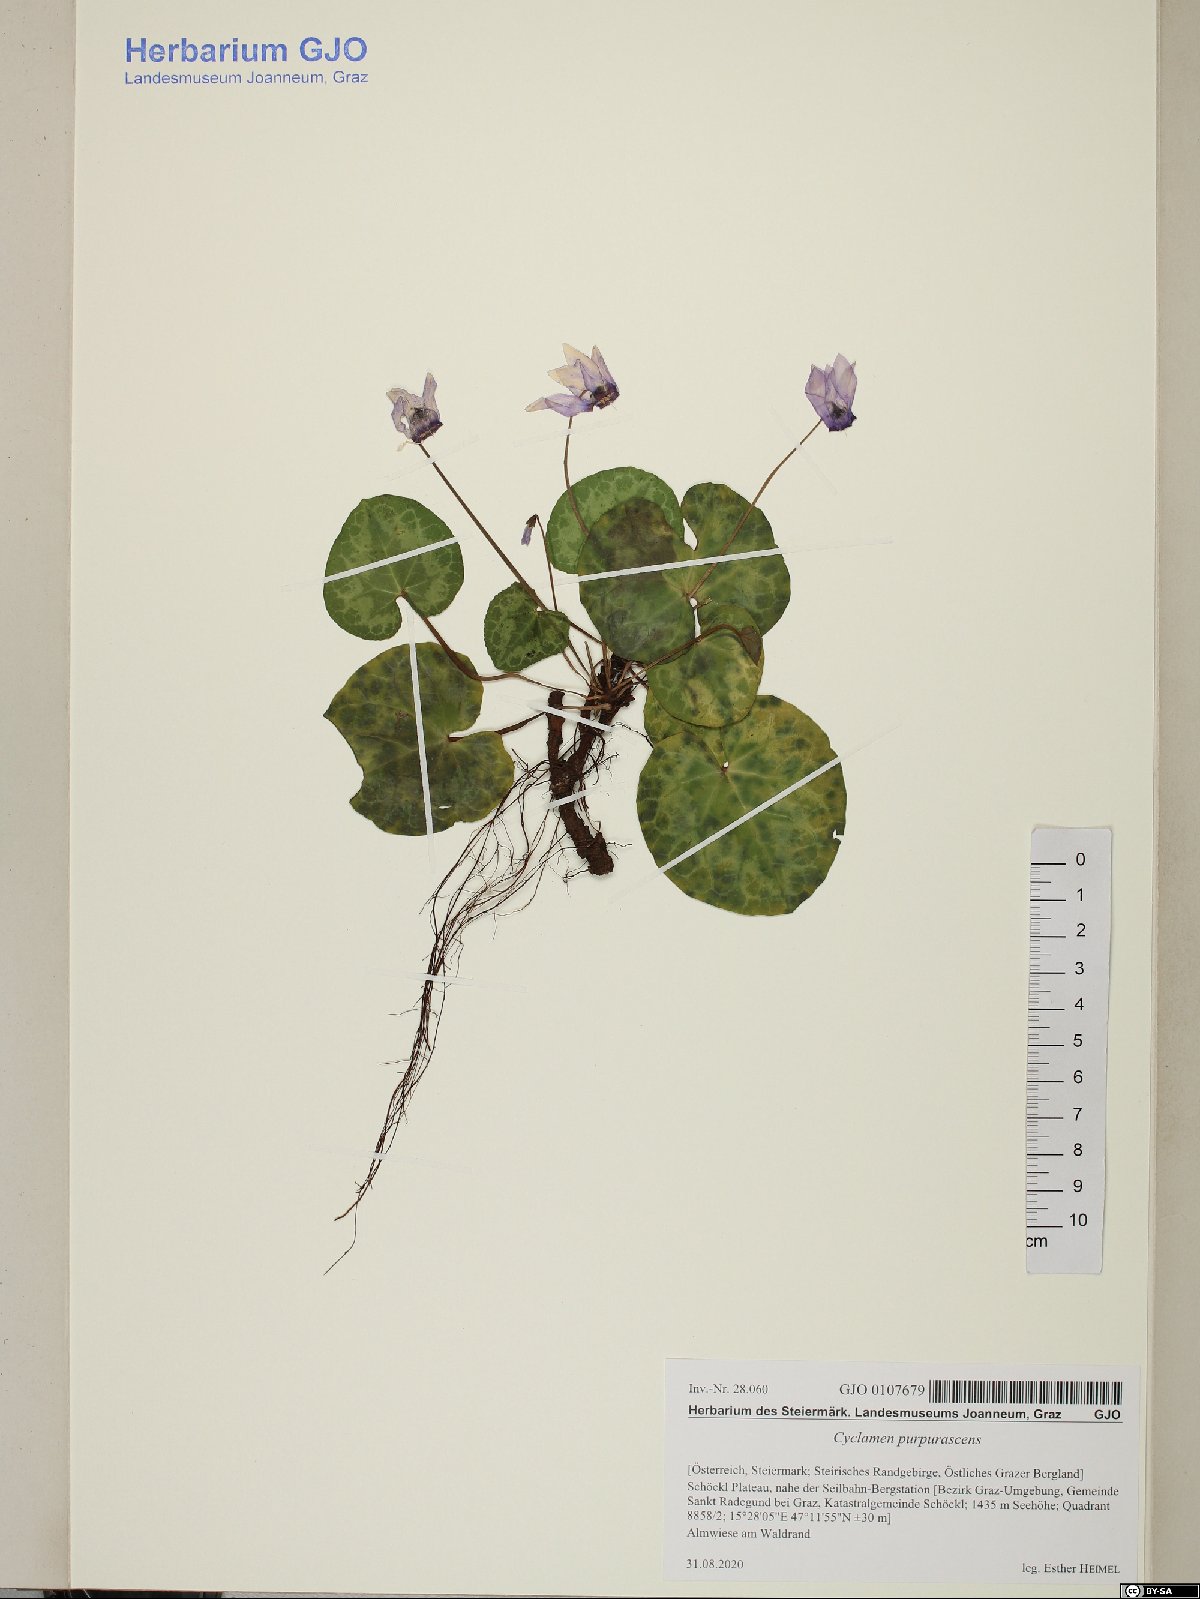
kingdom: Plantae
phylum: Tracheophyta
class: Magnoliopsida
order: Ericales
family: Primulaceae
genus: Cyclamen
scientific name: Cyclamen purpurascens
